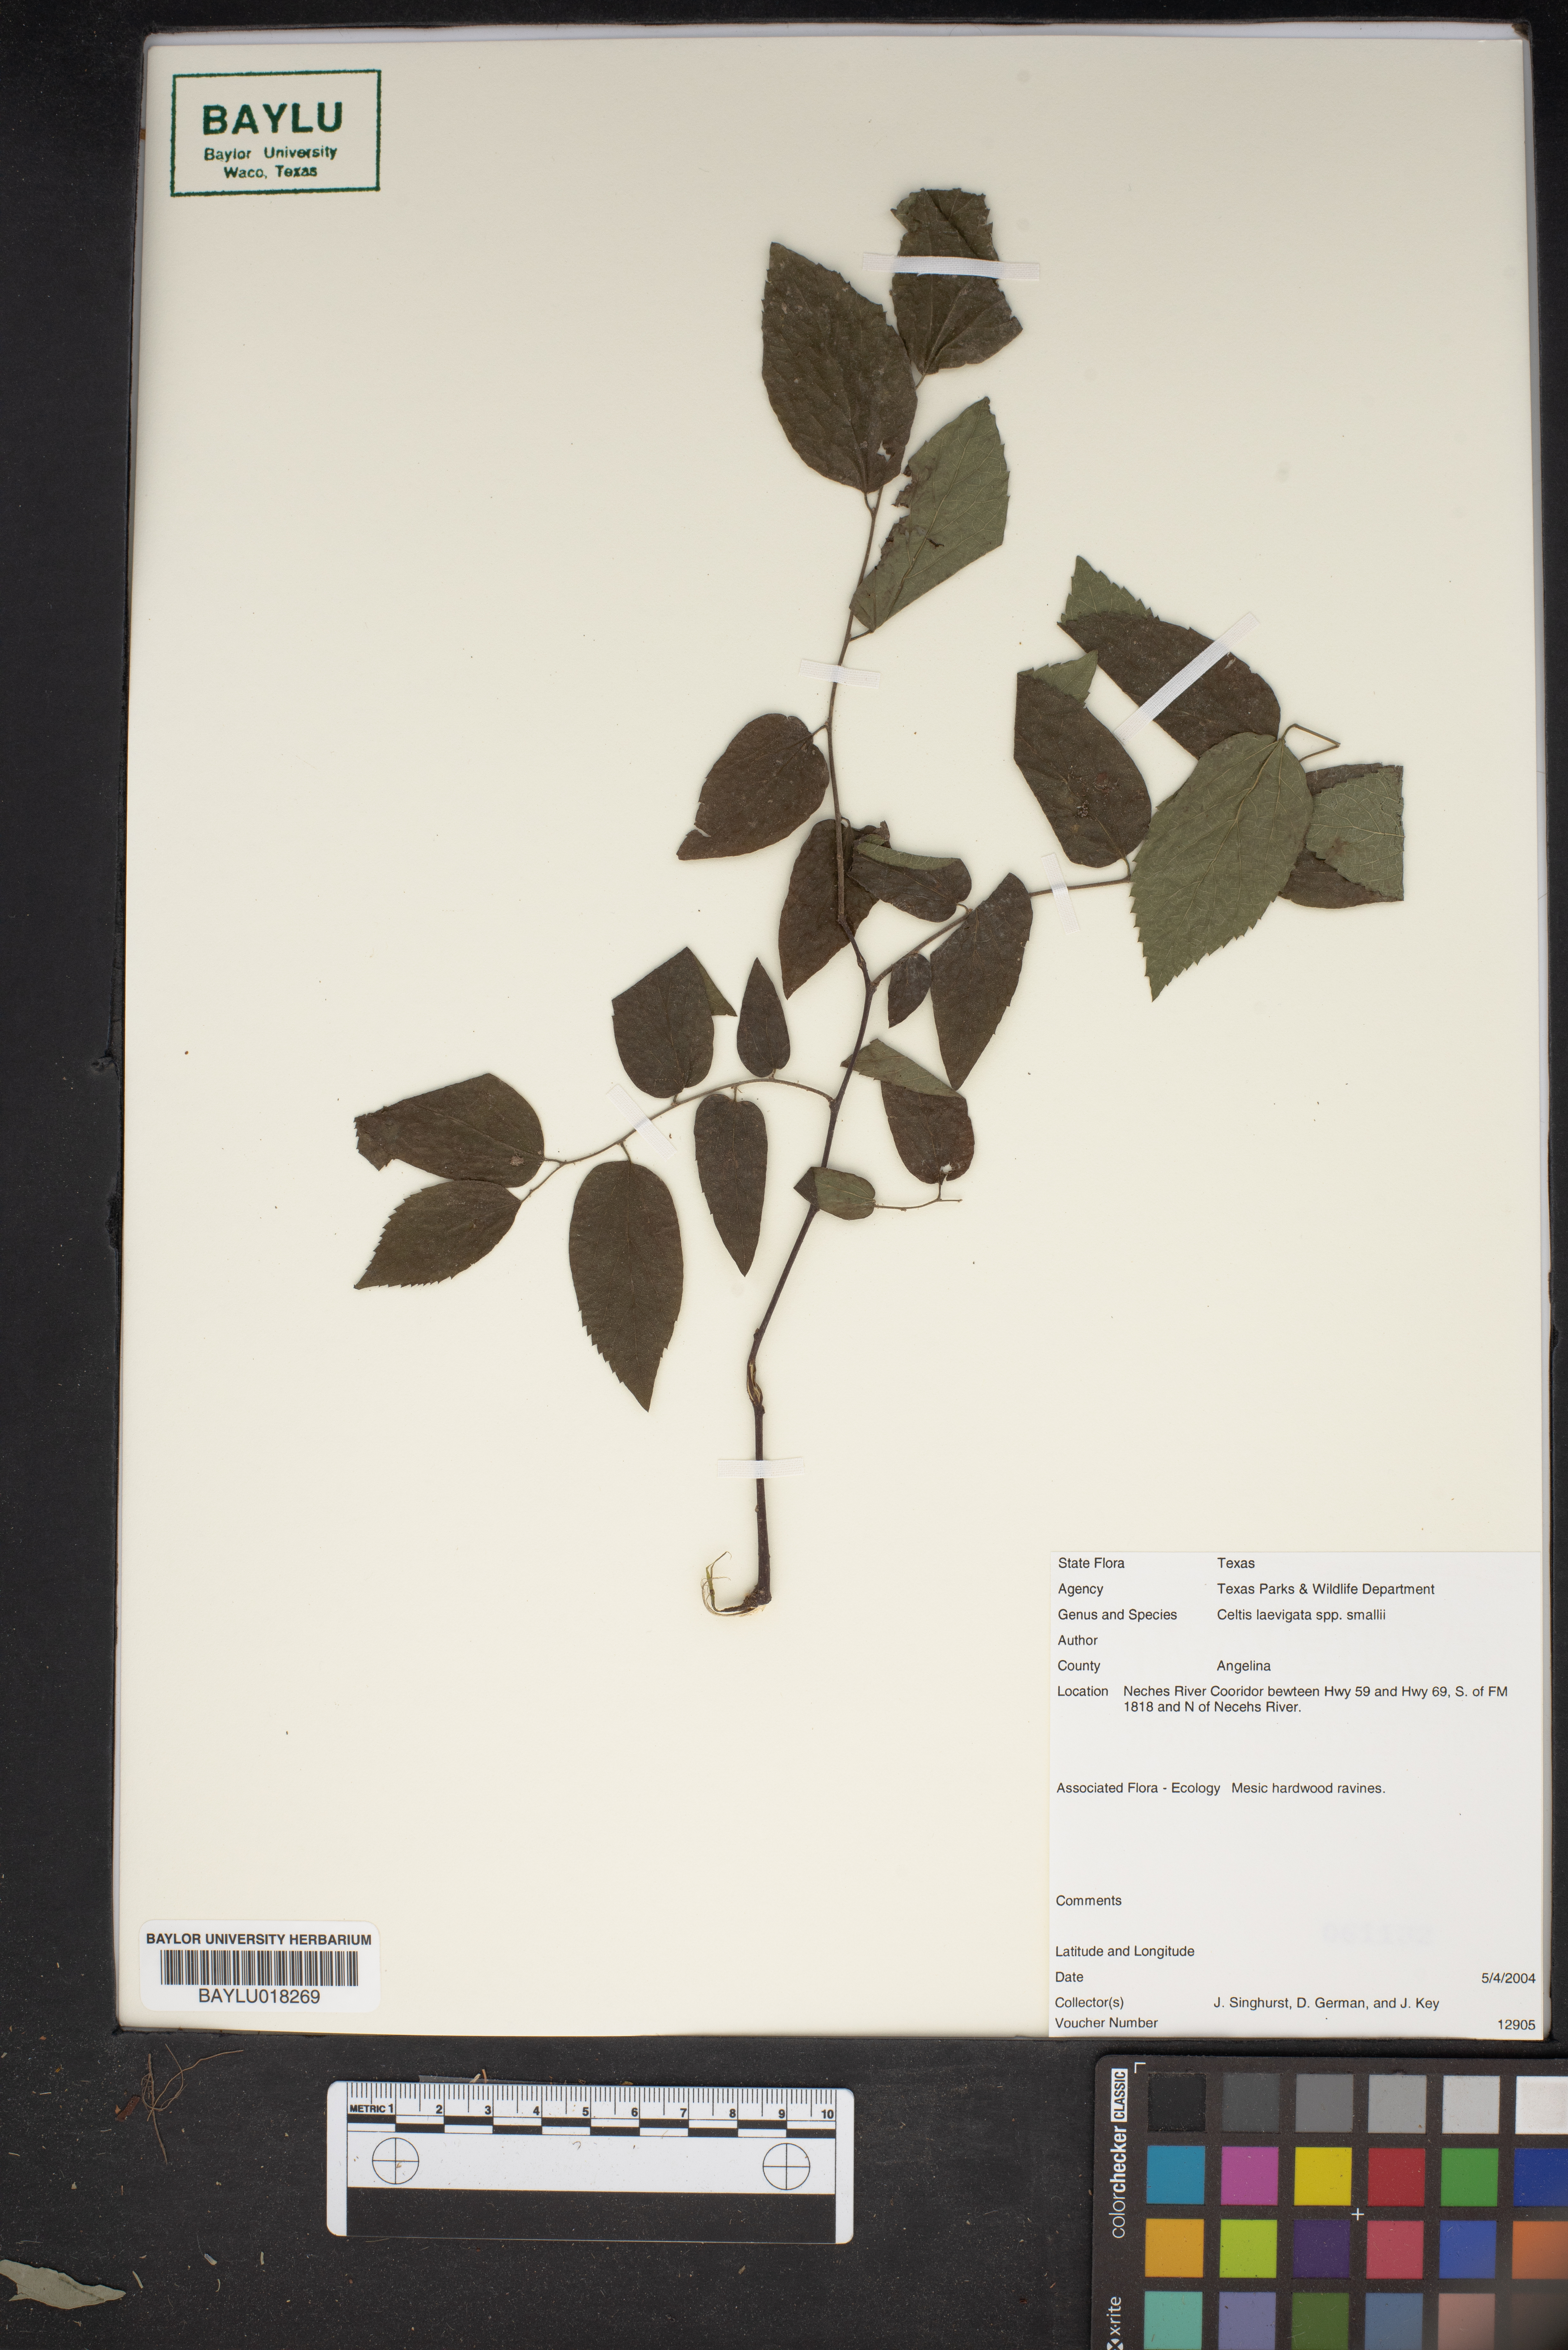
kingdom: Plantae
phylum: Tracheophyta
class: Magnoliopsida
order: Rosales
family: Cannabaceae
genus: Celtis
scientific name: Celtis
